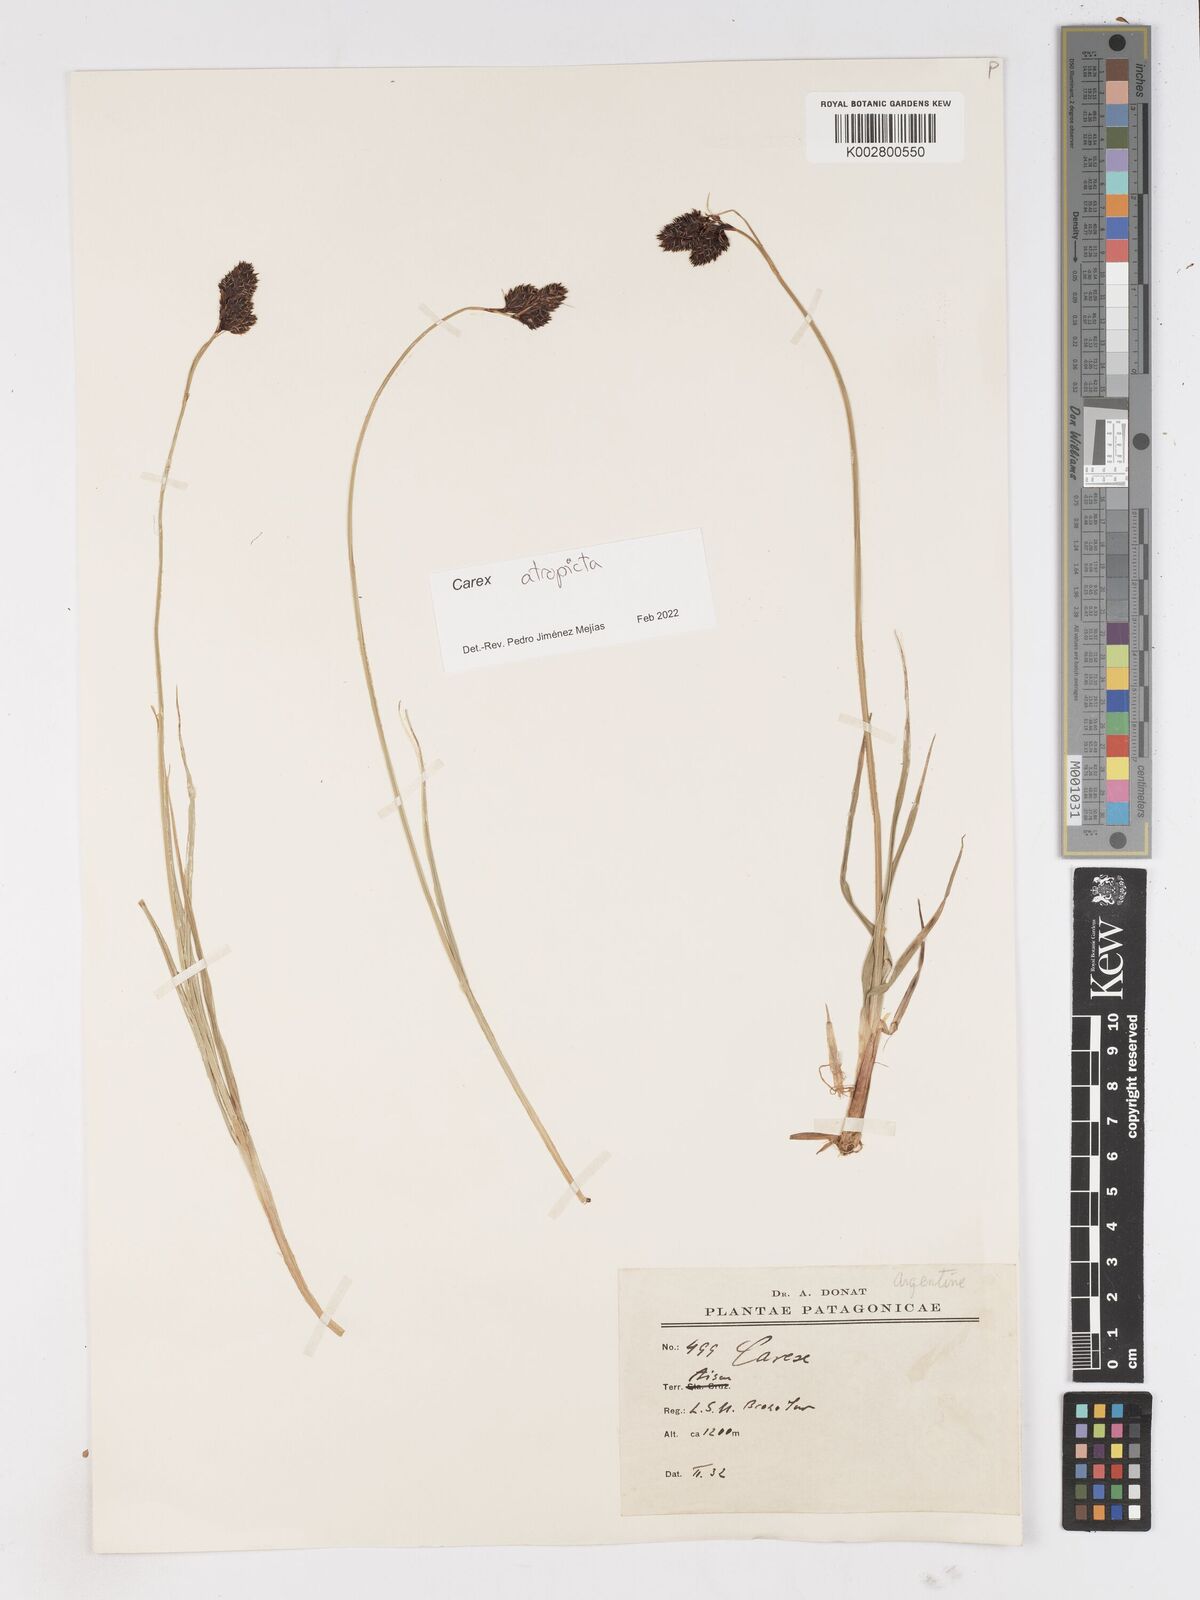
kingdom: Plantae
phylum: Tracheophyta
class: Liliopsida
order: Poales
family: Cyperaceae
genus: Carex
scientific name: Carex atropicta
